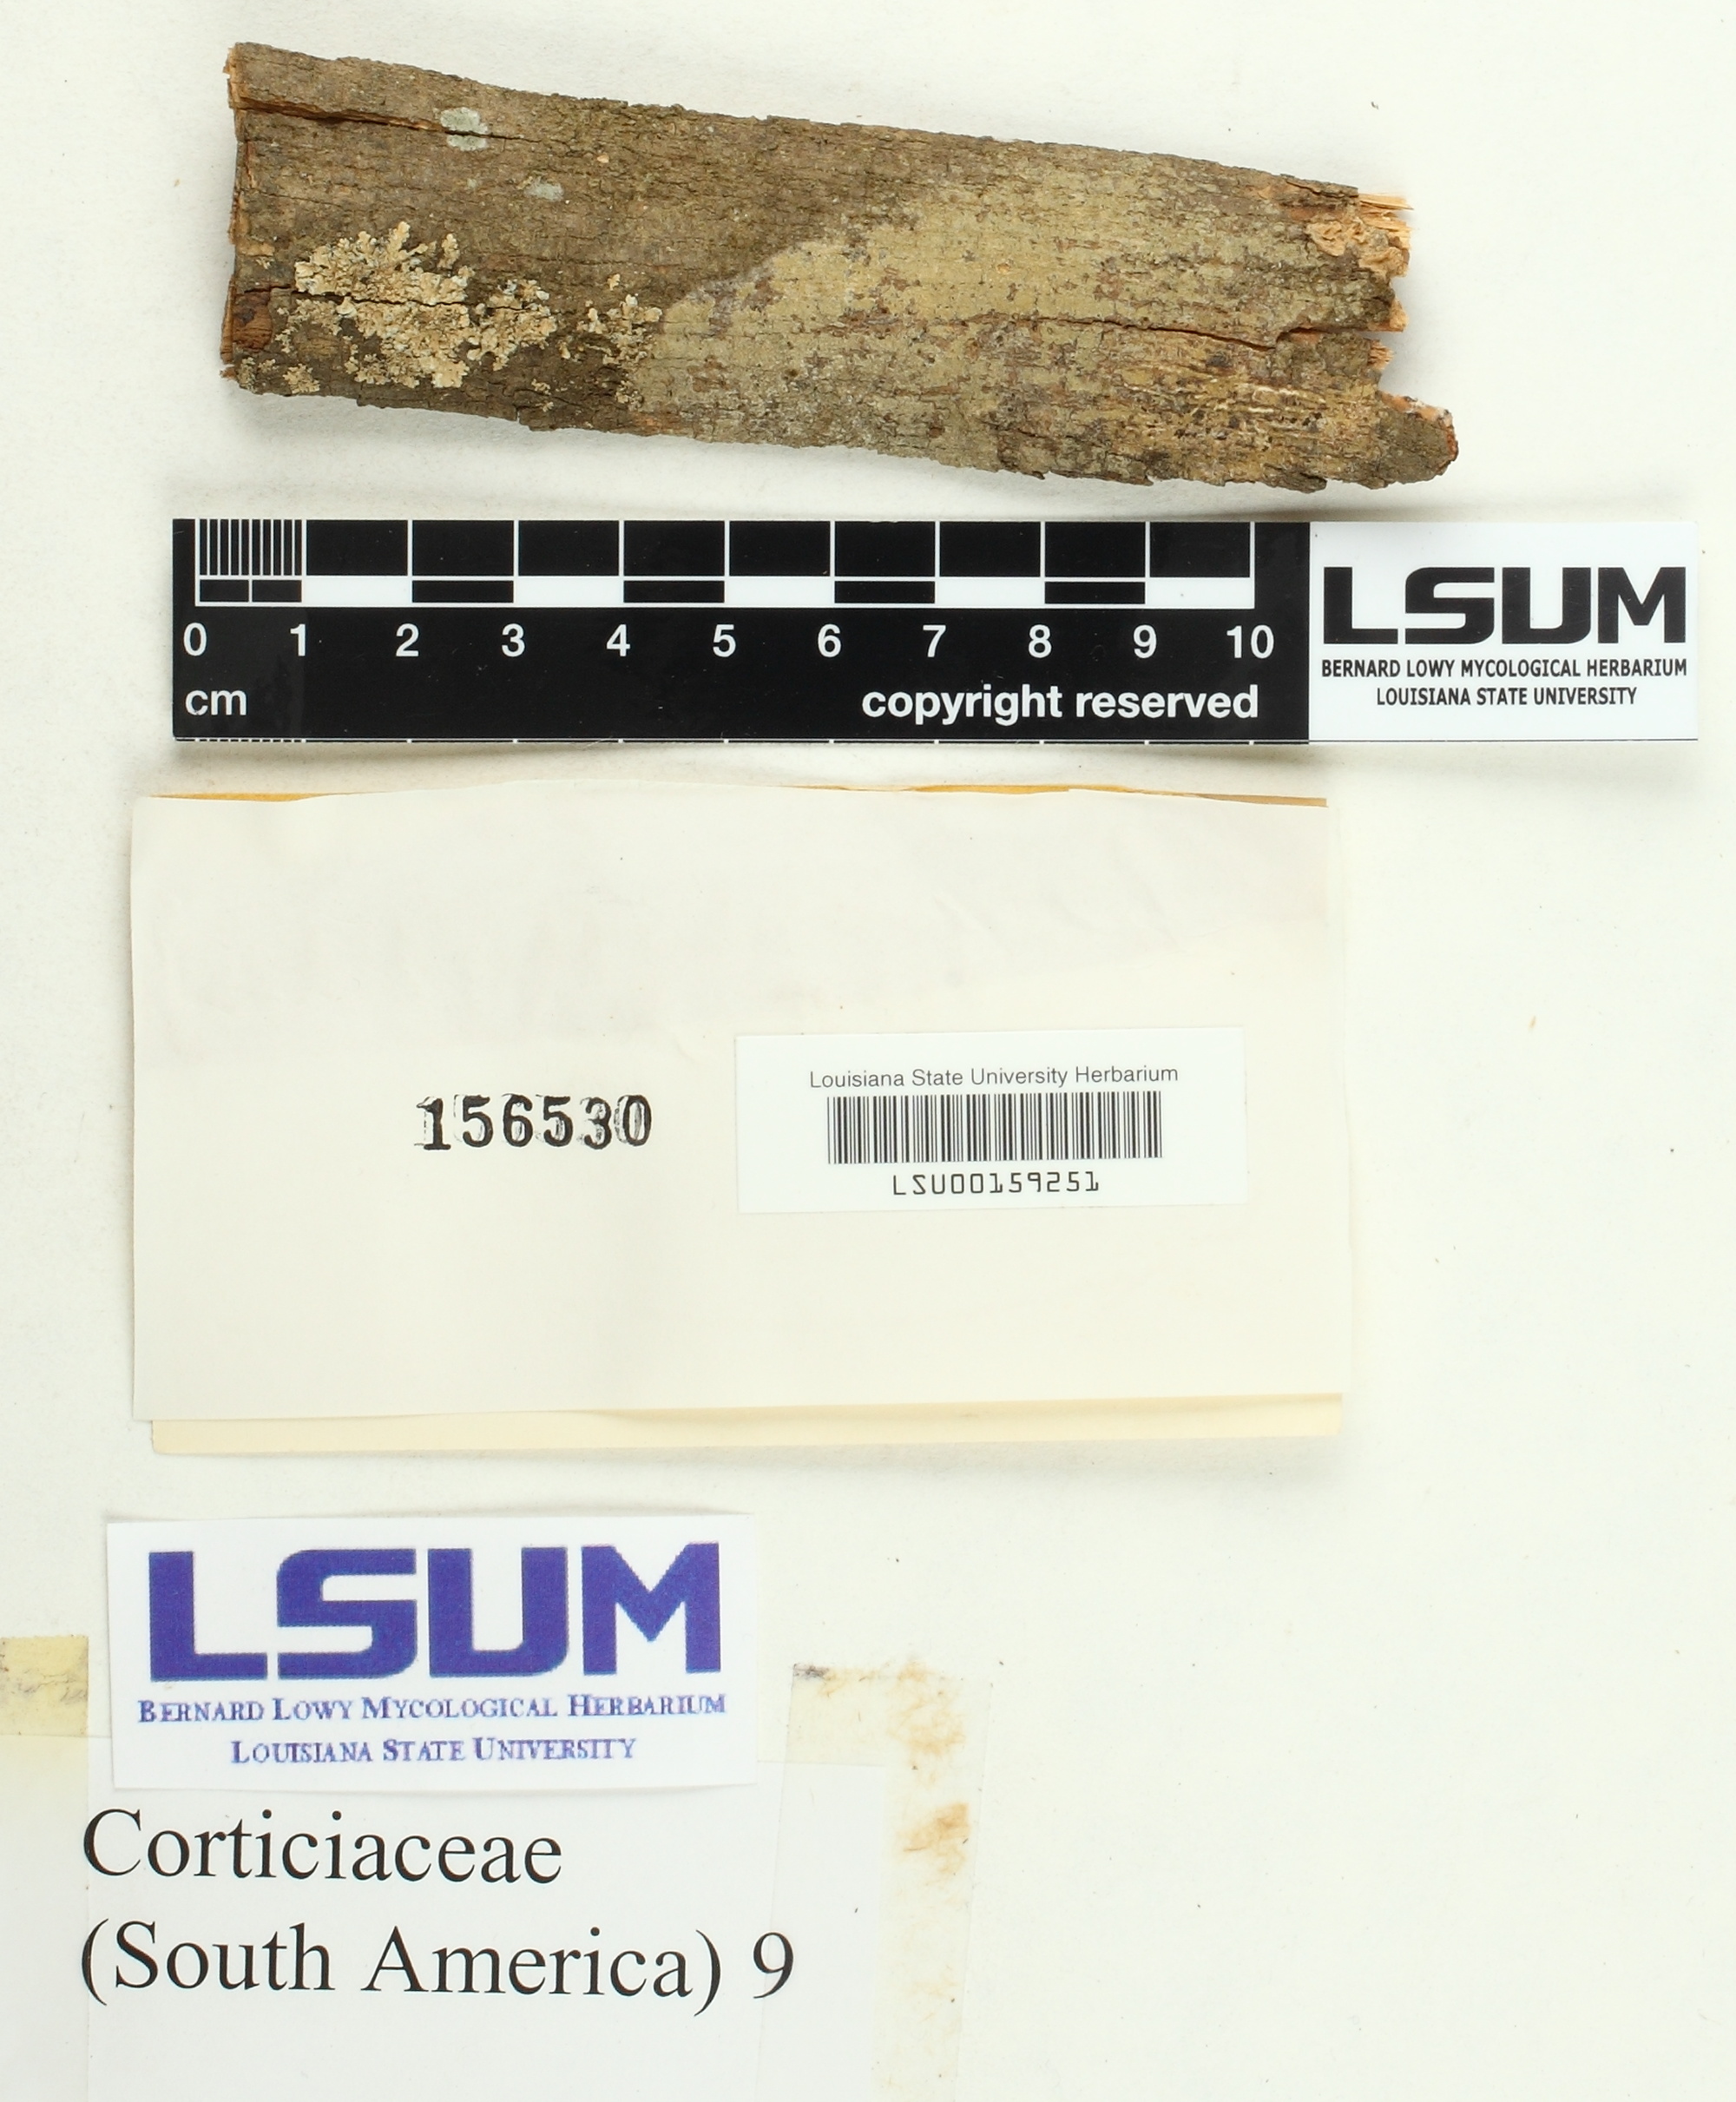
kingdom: Fungi
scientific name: Fungi
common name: Fungi
